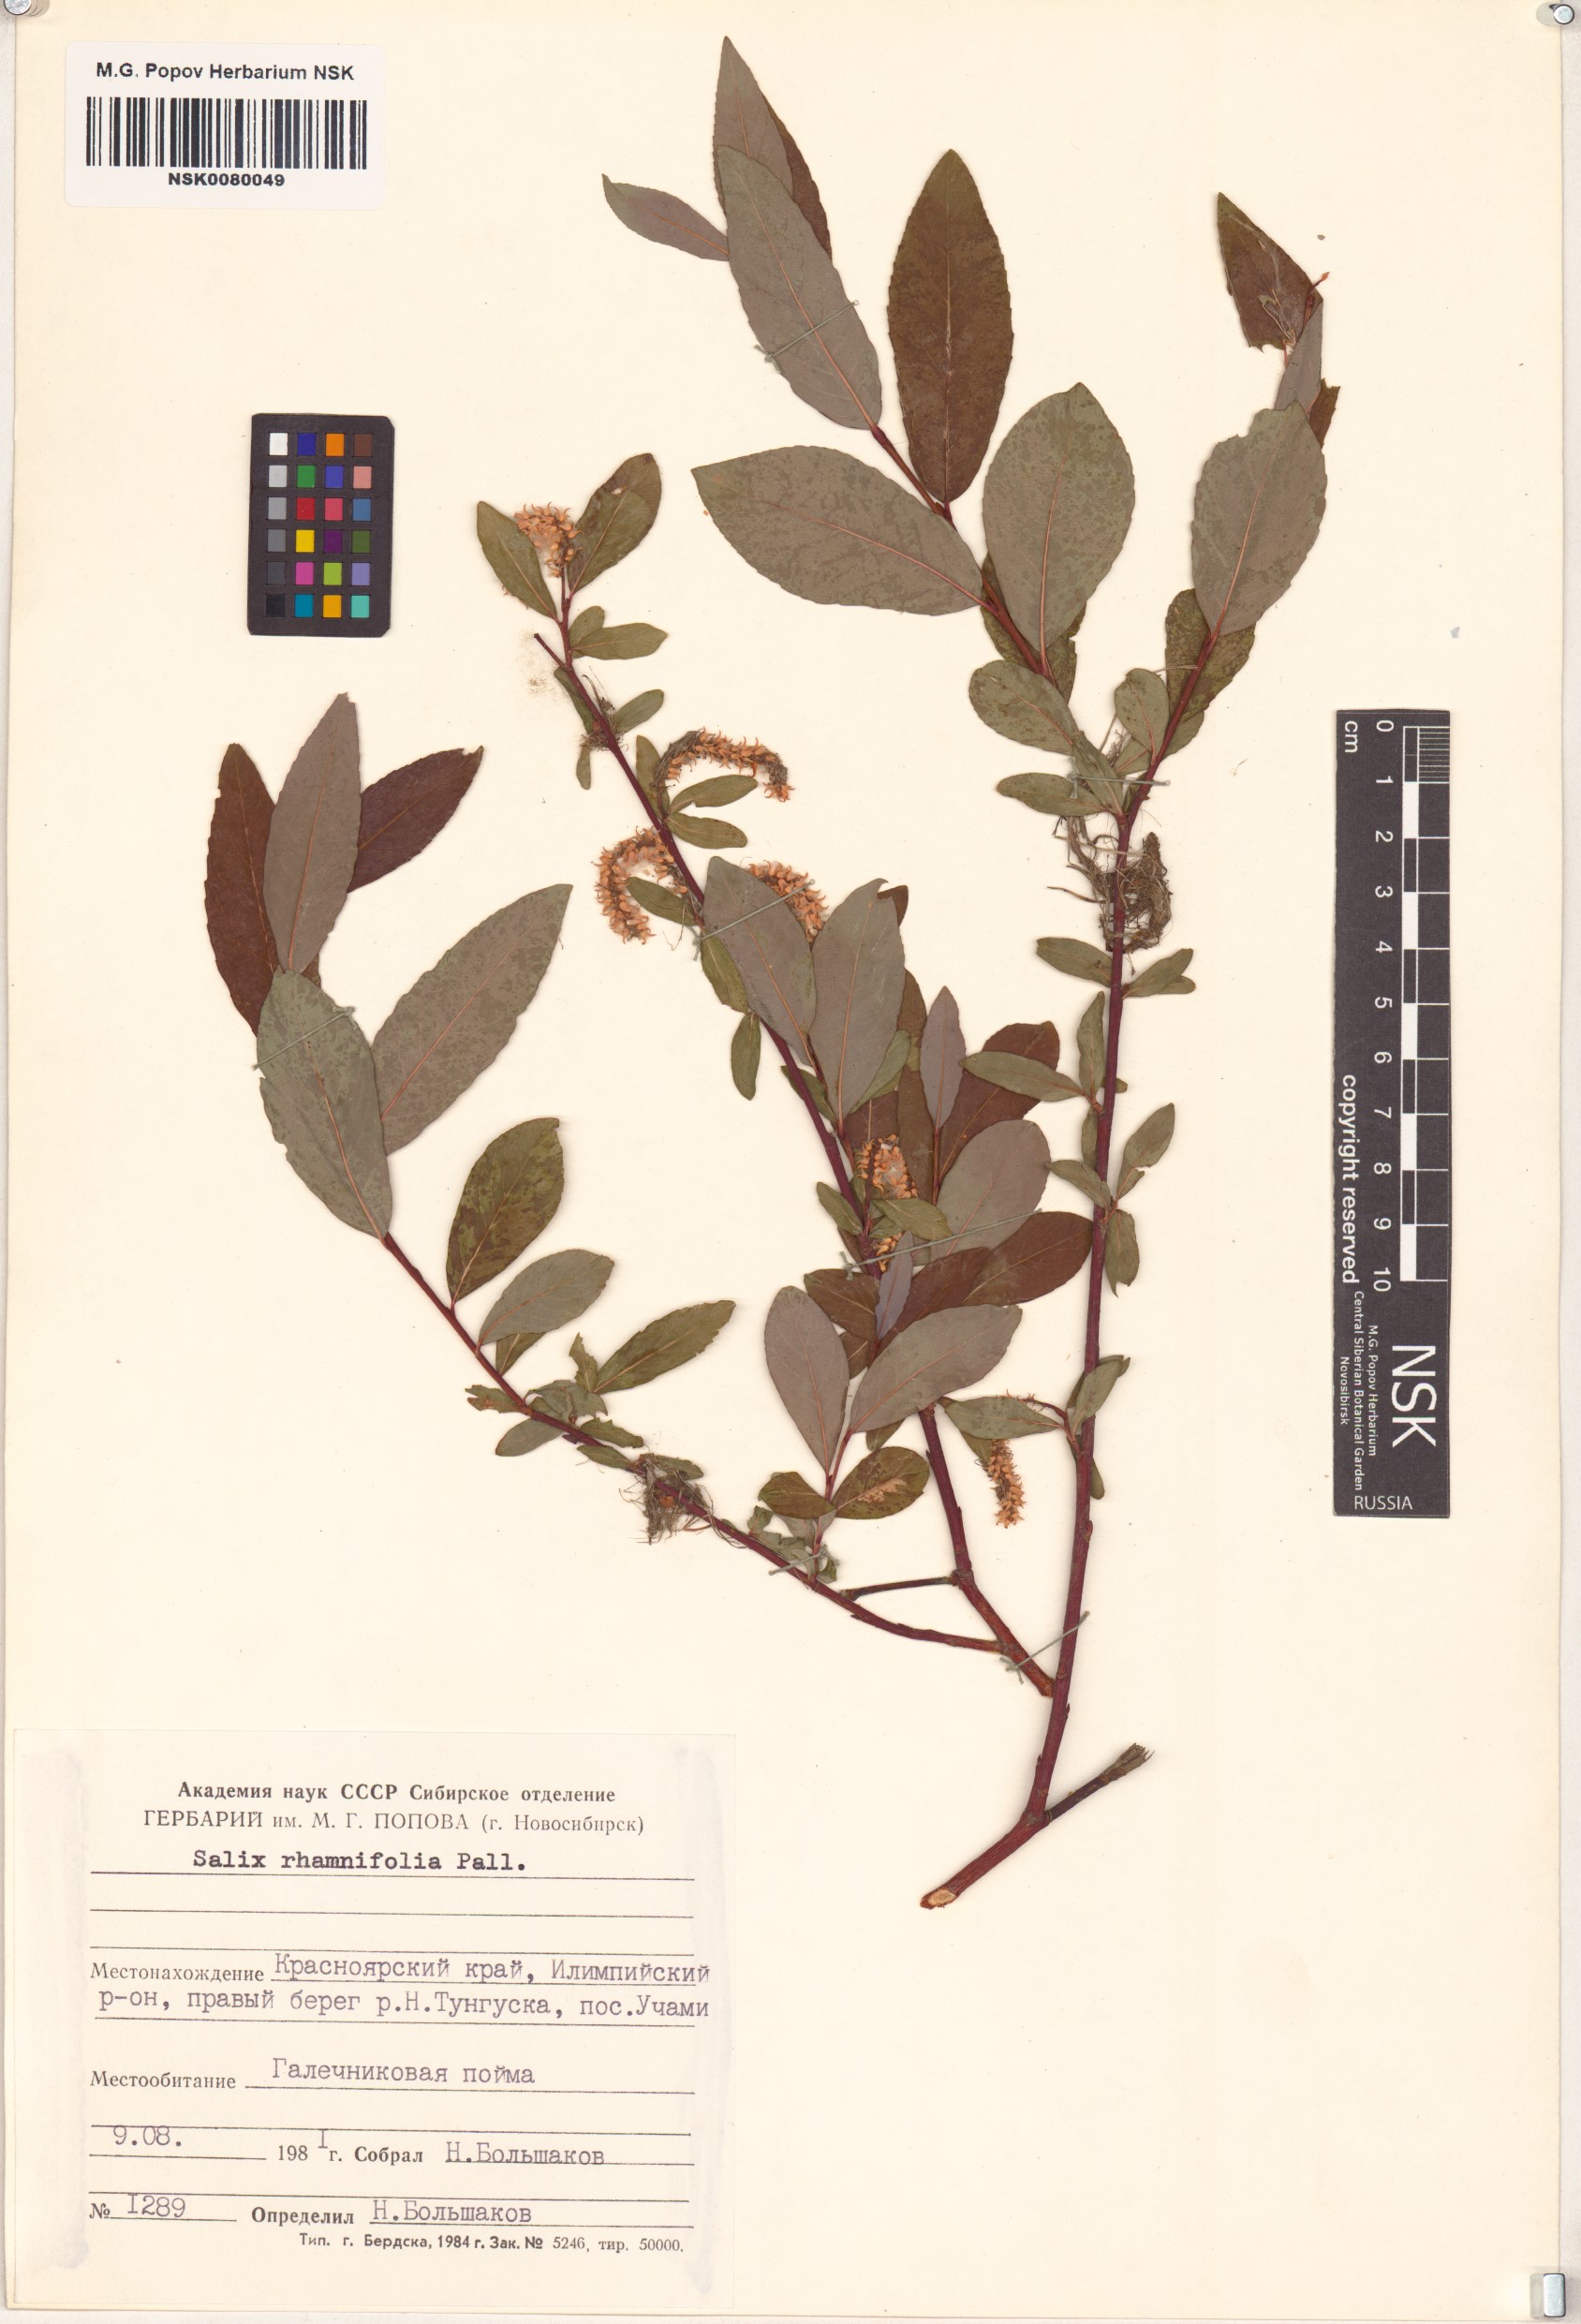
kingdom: Plantae
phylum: Tracheophyta
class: Magnoliopsida
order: Malpighiales
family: Salicaceae
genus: Salix
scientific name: Salix rhamnifolia
